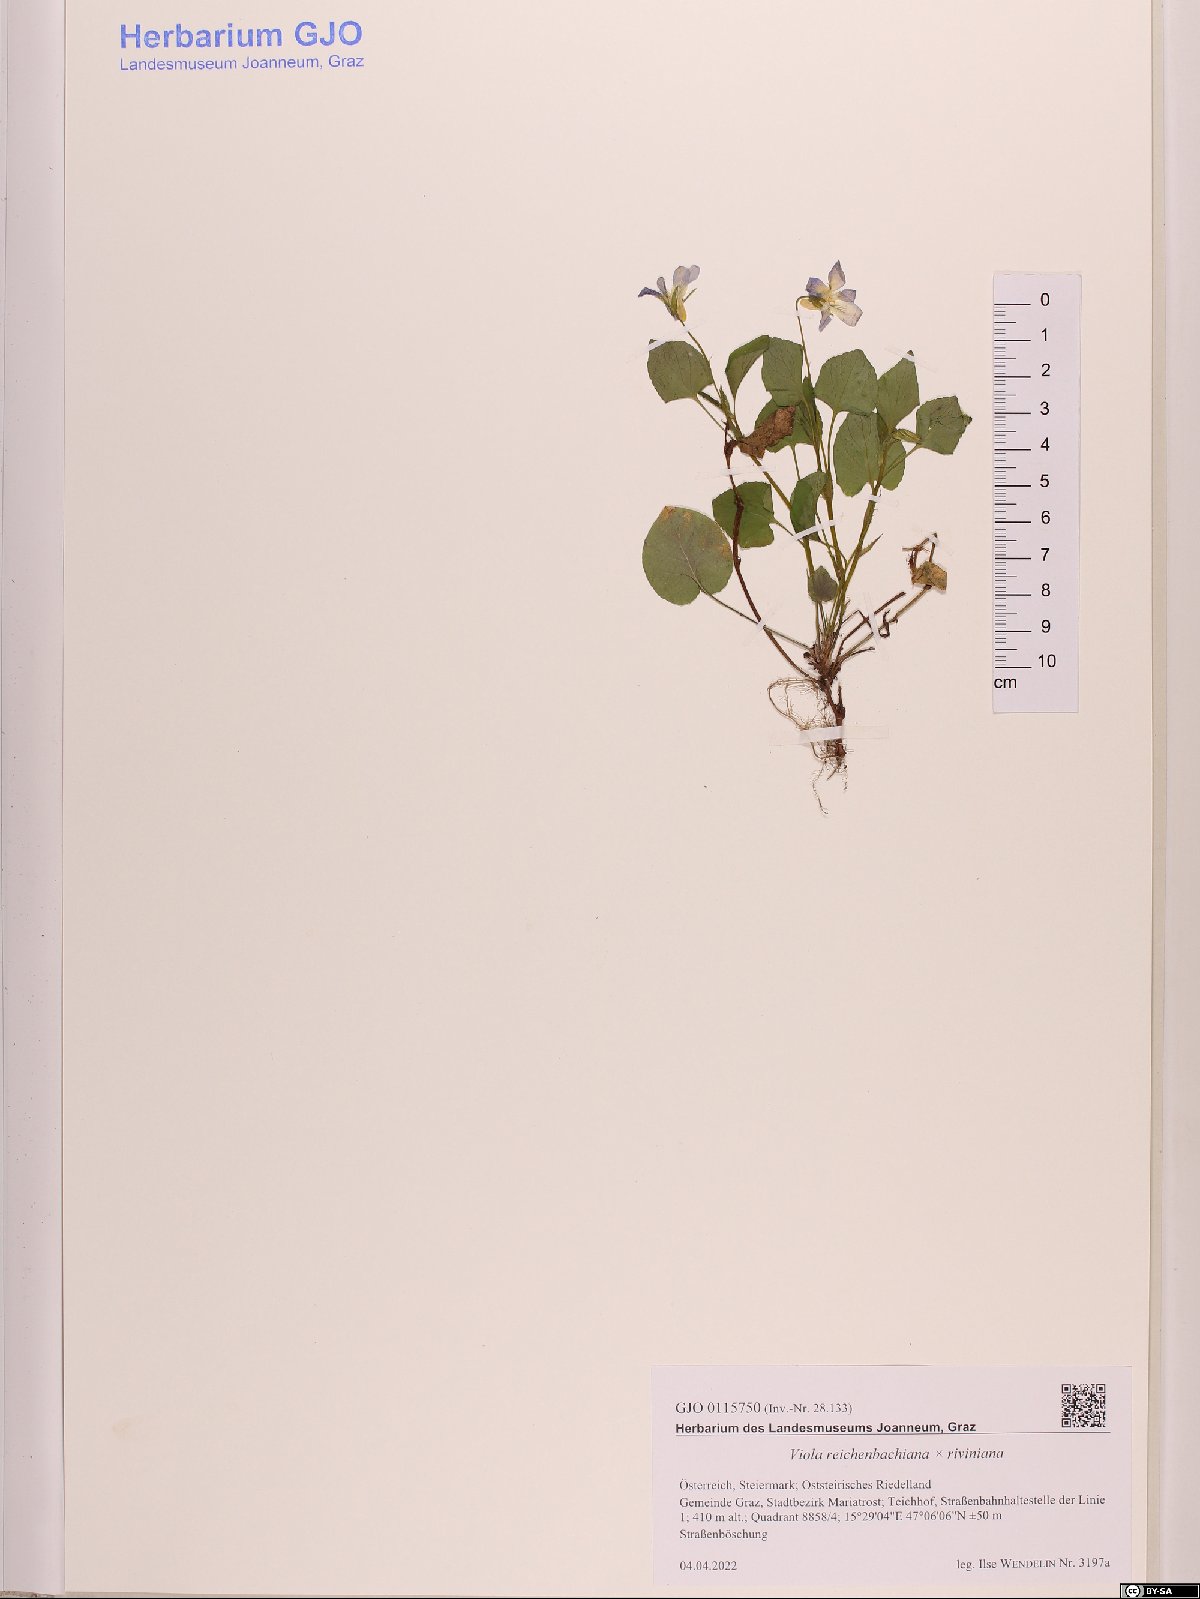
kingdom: Plantae
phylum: Tracheophyta
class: Magnoliopsida
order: Malpighiales
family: Violaceae
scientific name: Violaceae
